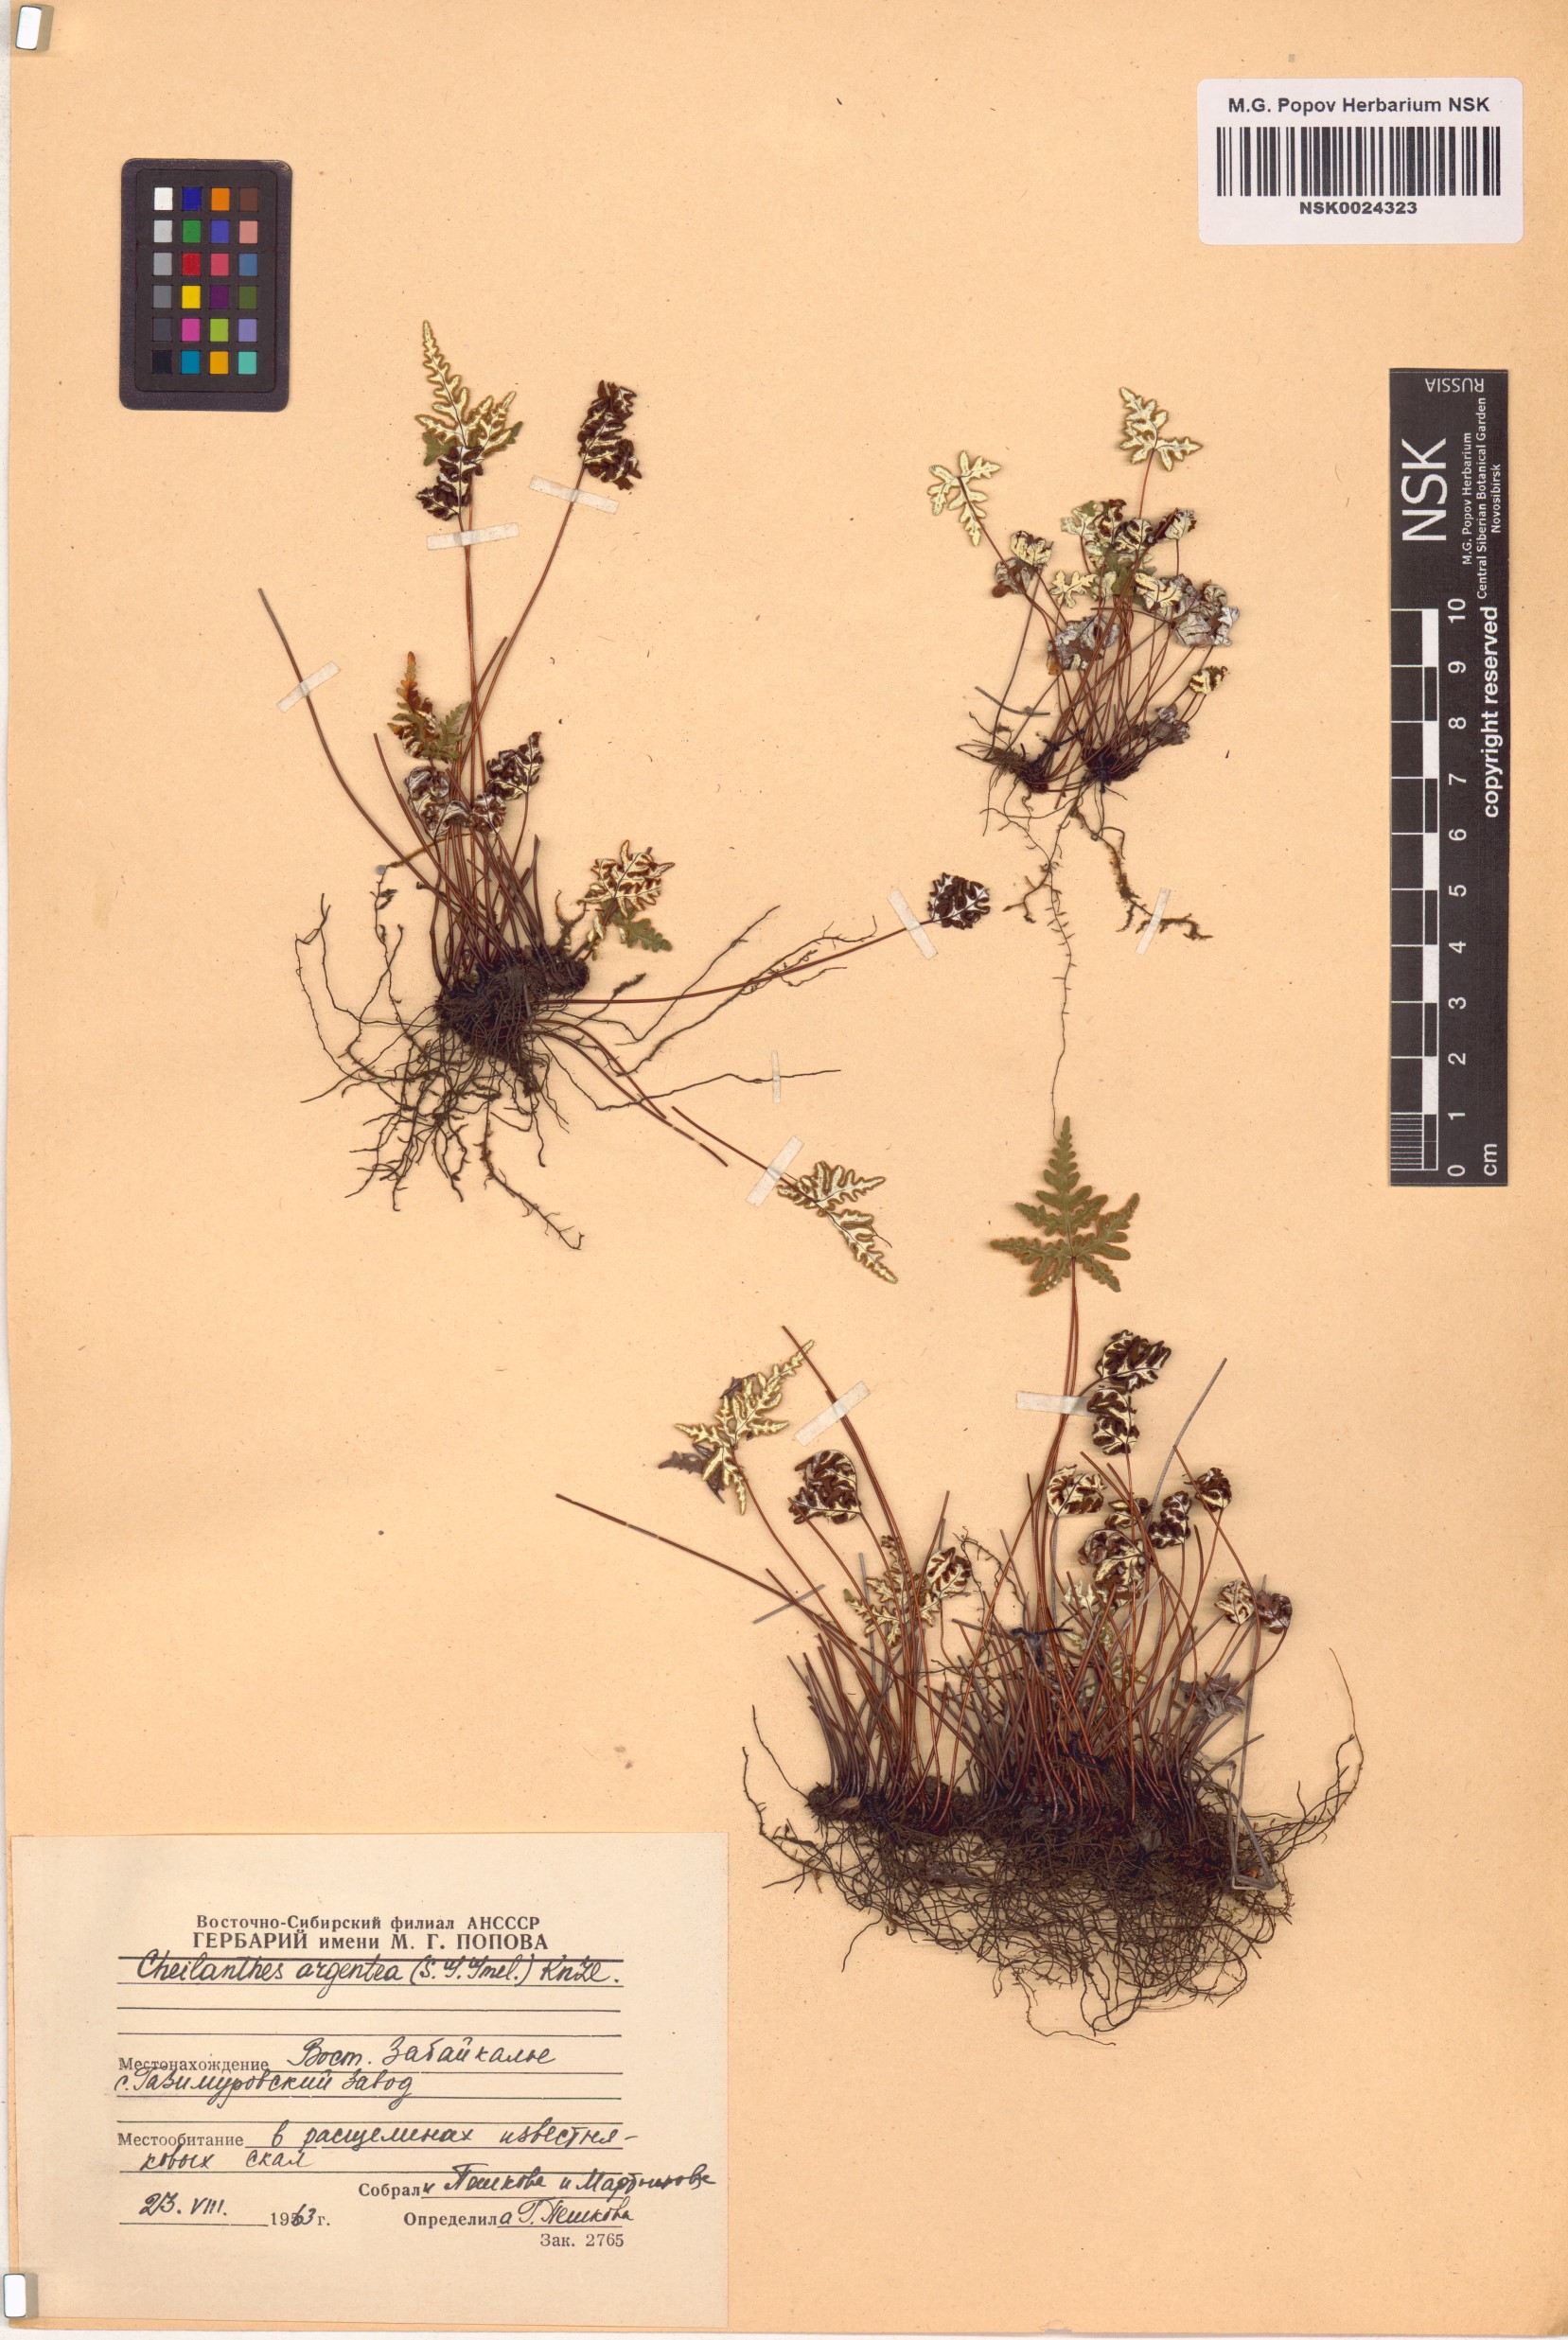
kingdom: Plantae
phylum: Tracheophyta
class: Polypodiopsida
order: Polypodiales
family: Pteridaceae
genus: Aleuritopteris
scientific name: Aleuritopteris argentea
